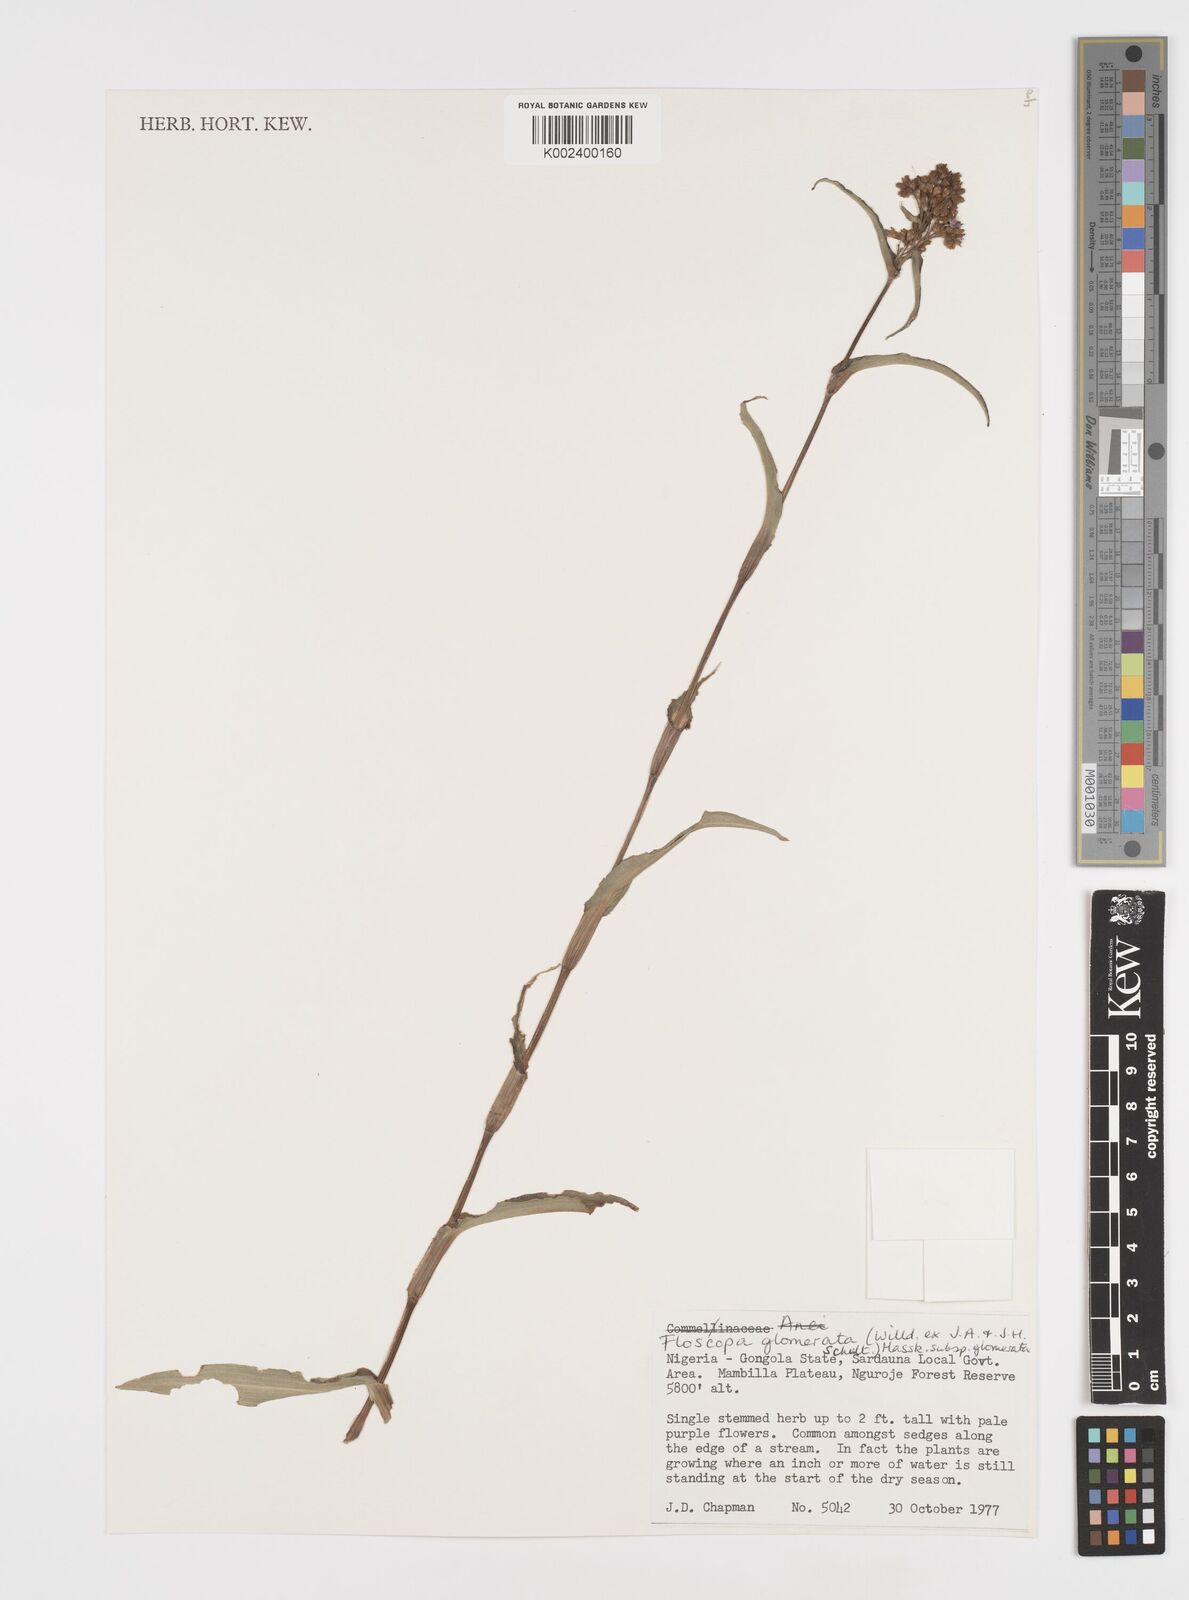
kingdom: Plantae
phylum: Tracheophyta
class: Liliopsida
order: Commelinales
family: Commelinaceae
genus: Floscopa
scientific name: Floscopa glomerata
